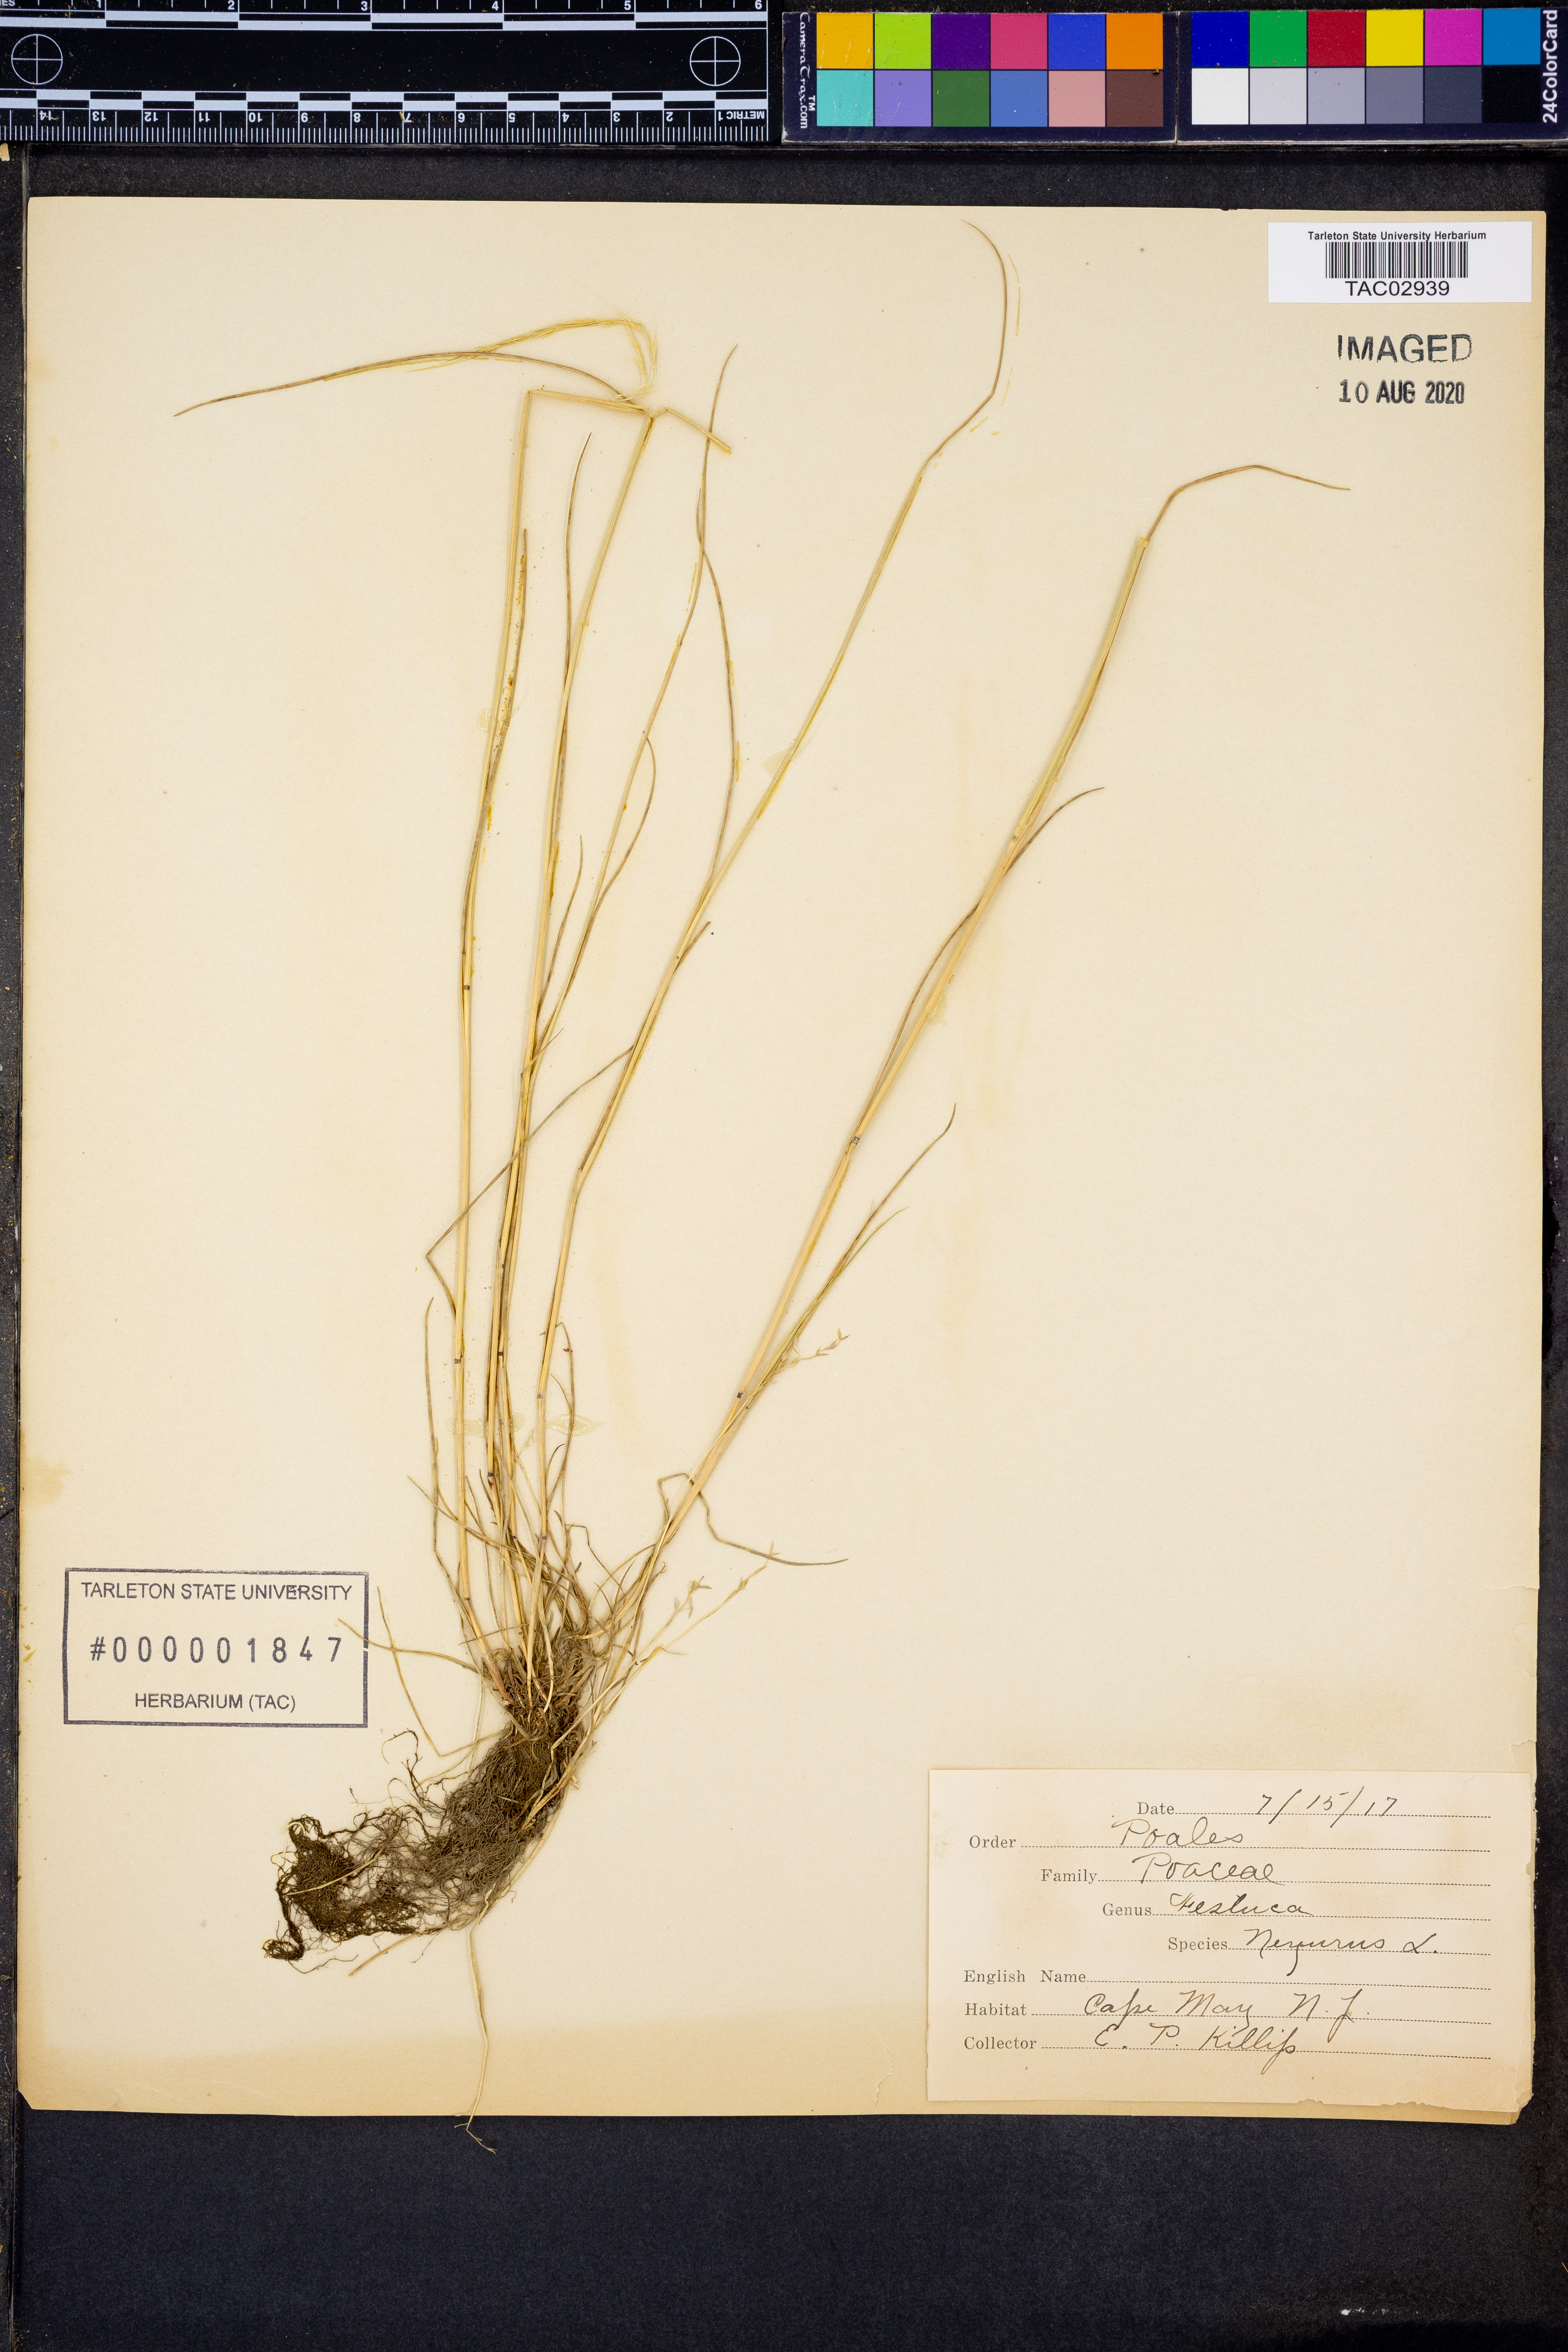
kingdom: Plantae
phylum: Tracheophyta
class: Liliopsida
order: Poales
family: Poaceae
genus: Festuca
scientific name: Festuca
